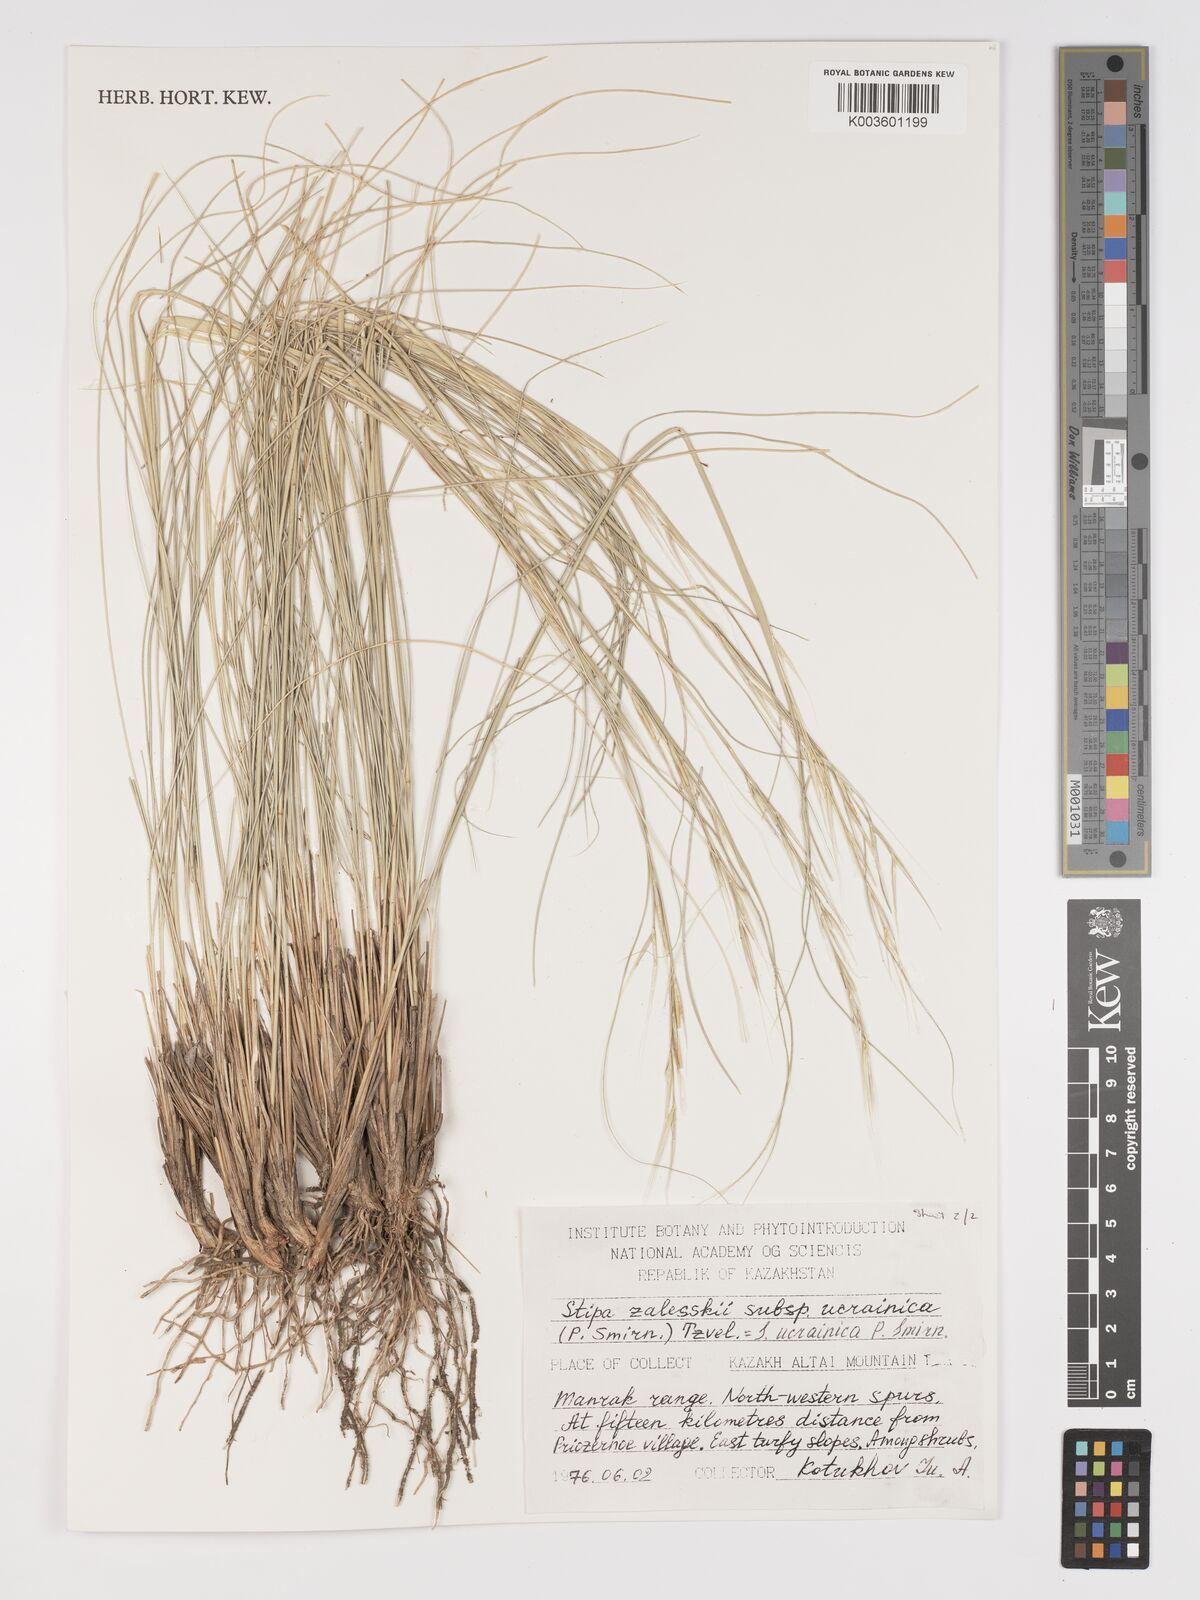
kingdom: Plantae
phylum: Tracheophyta
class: Liliopsida
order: Poales
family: Poaceae
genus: Stipa
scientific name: Stipa
